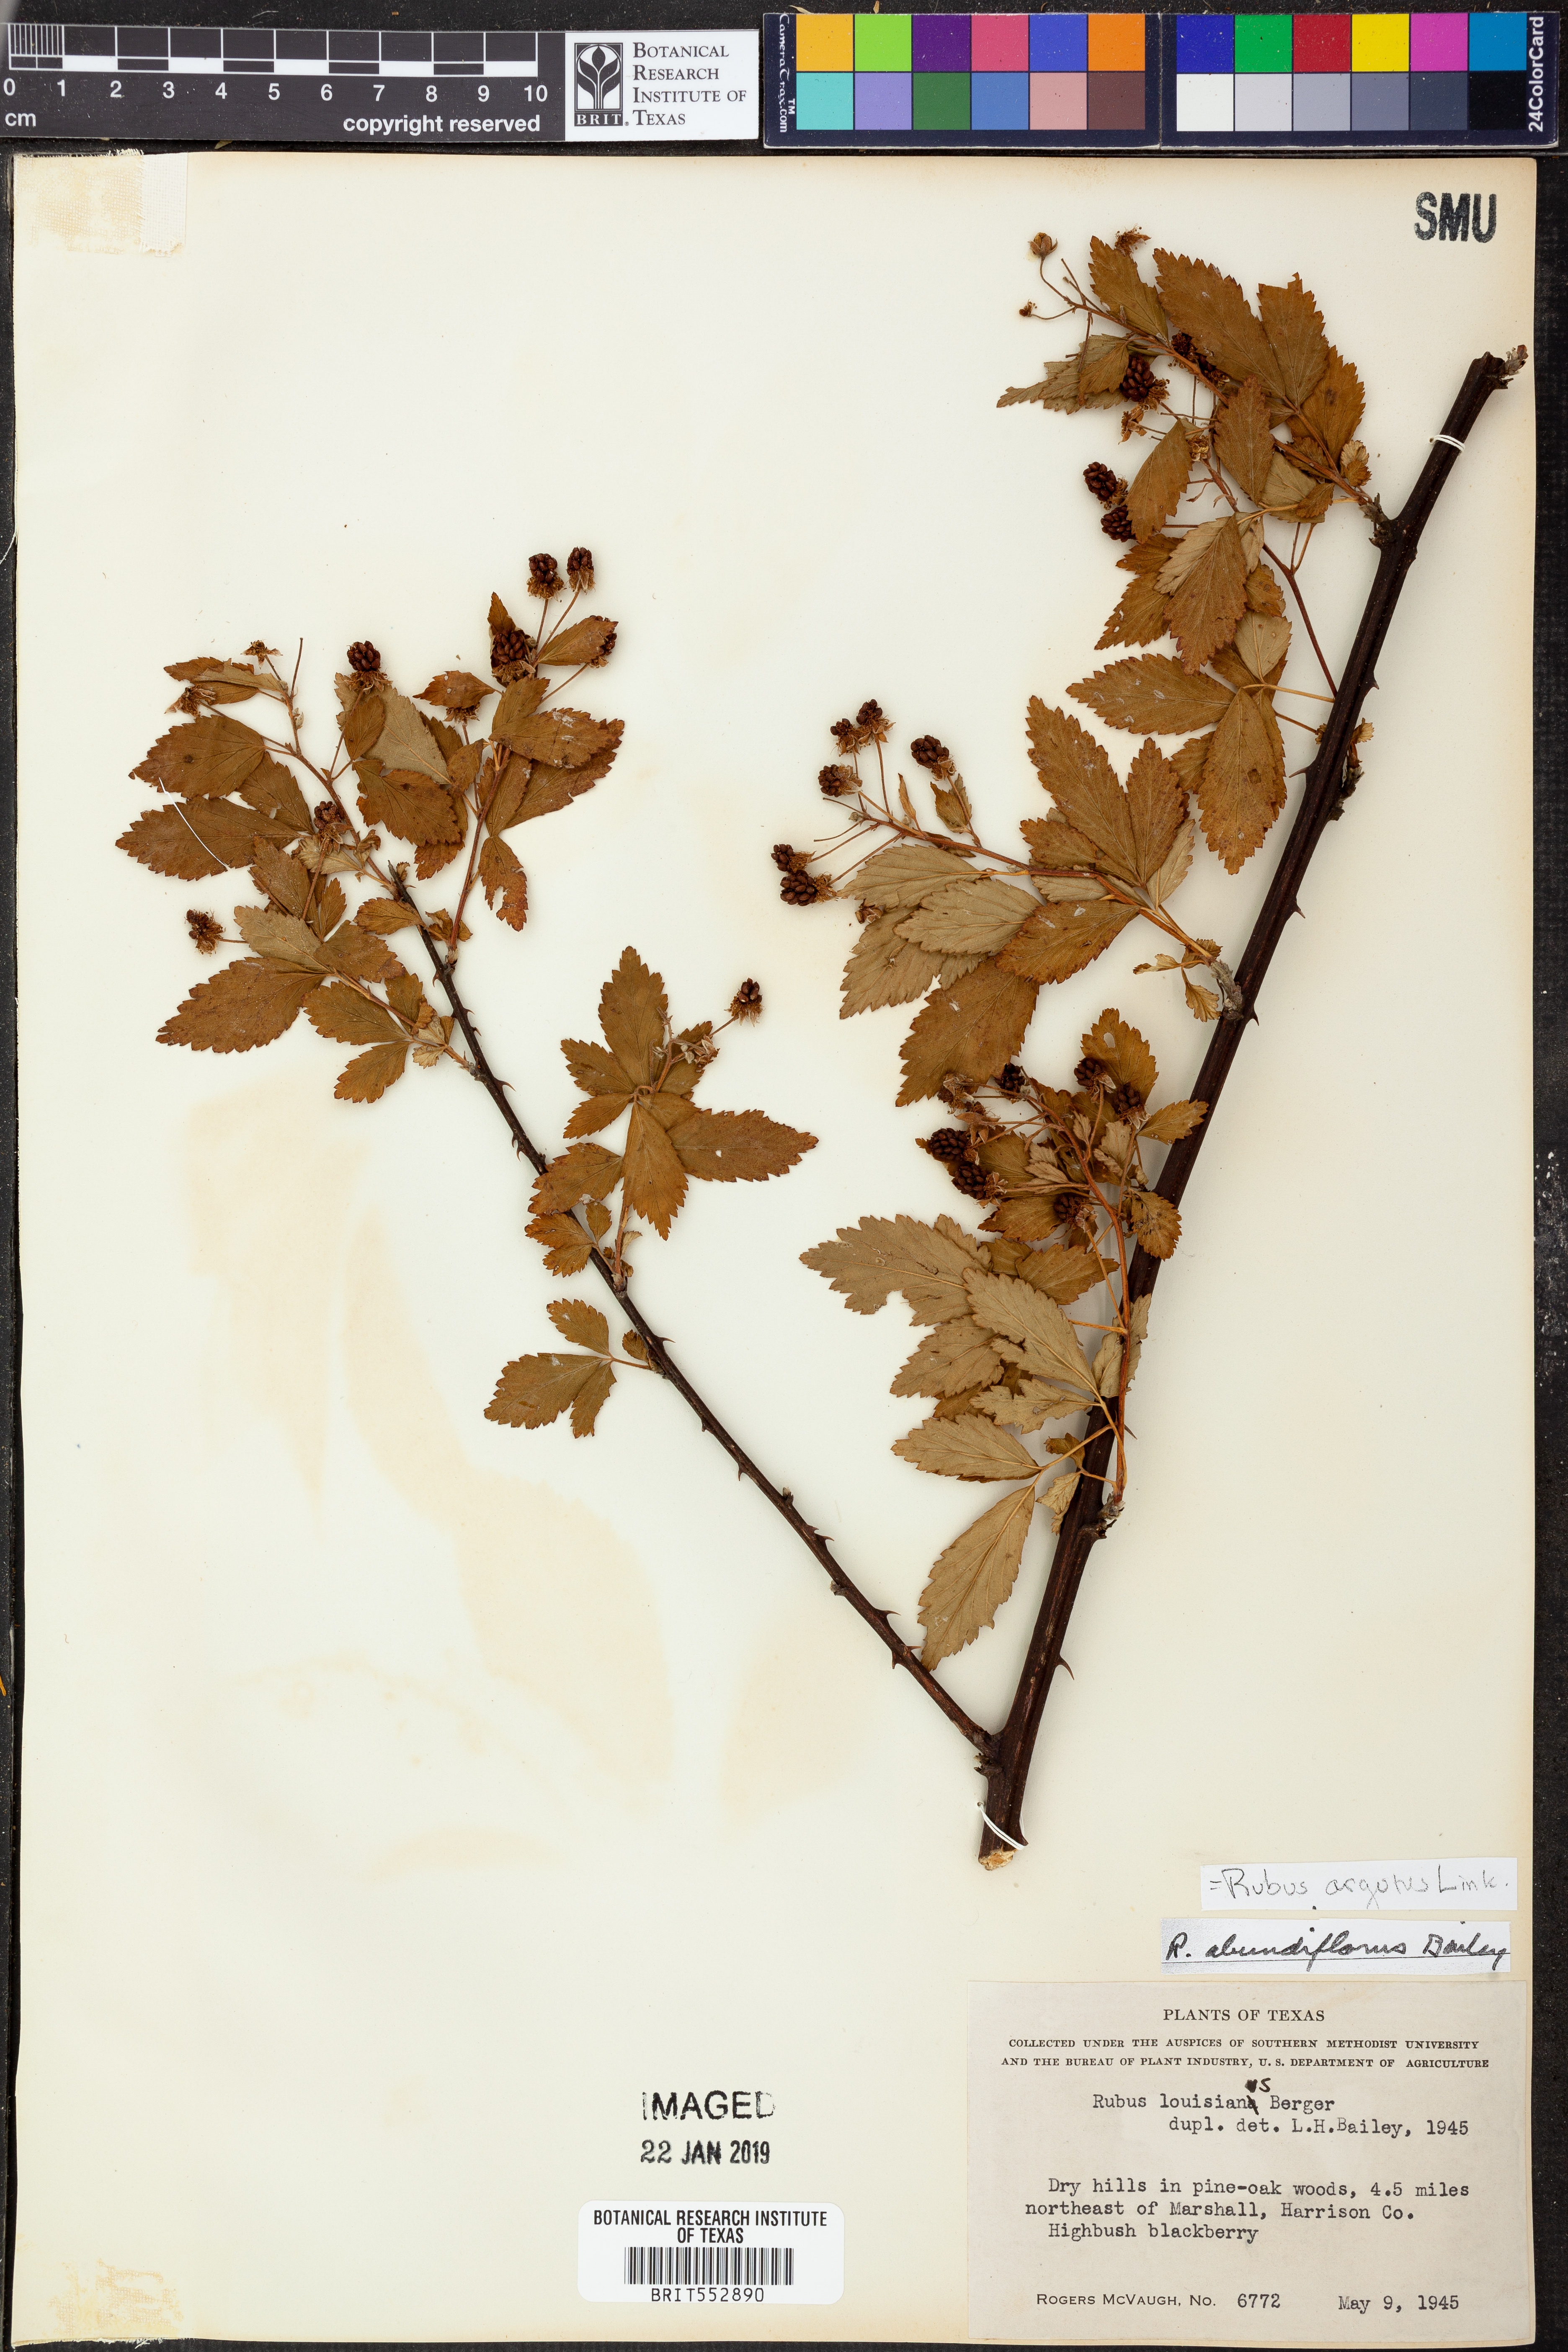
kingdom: Plantae
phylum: Tracheophyta
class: Magnoliopsida
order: Rosales
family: Rosaceae
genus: Rubus
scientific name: Rubus argutus
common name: Sawtooth blackberry
